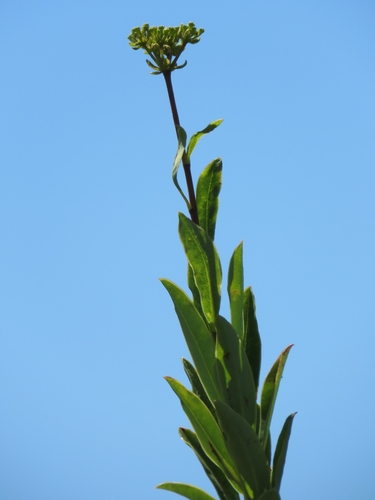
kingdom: Plantae
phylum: Tracheophyta
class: Magnoliopsida
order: Apiales
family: Apiaceae
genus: Bupleurum
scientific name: Bupleurum fruticosum
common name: Shrubby hare's-ear
